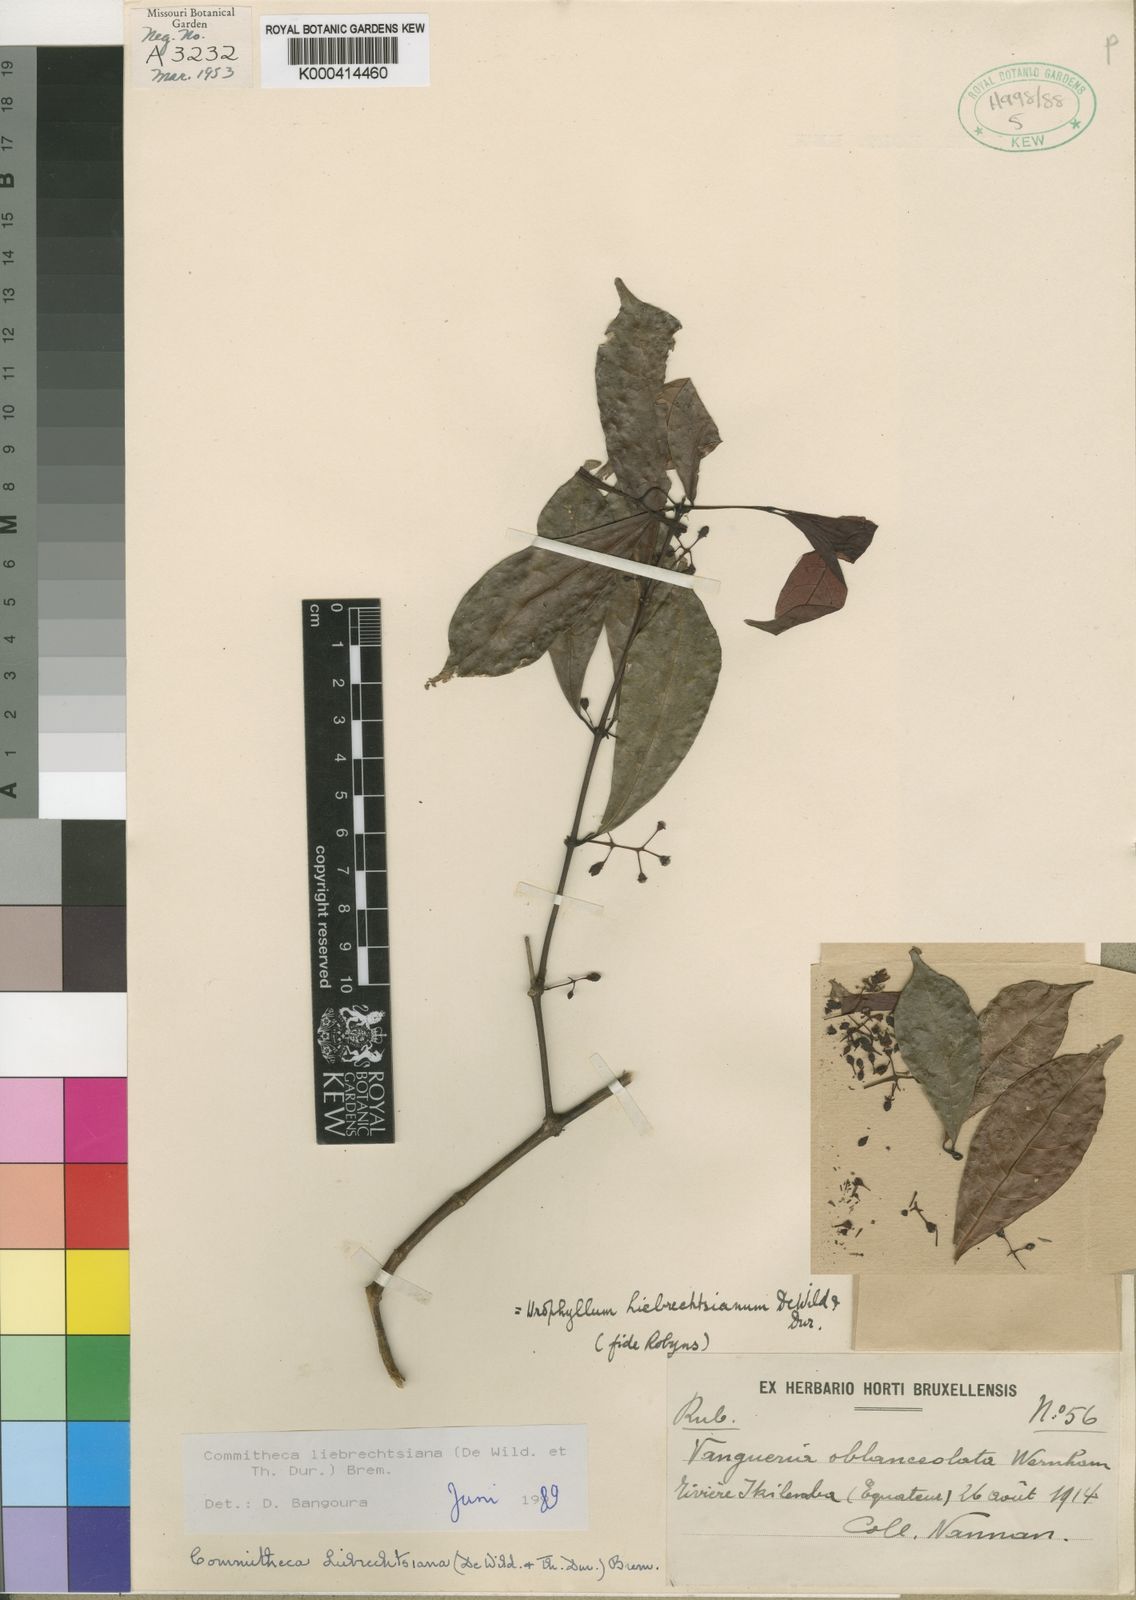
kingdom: Plantae
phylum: Tracheophyta
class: Magnoliopsida
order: Gentianales
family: Rubiaceae
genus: Pauridiantha
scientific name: Pauridiantha liebrechtsiana
